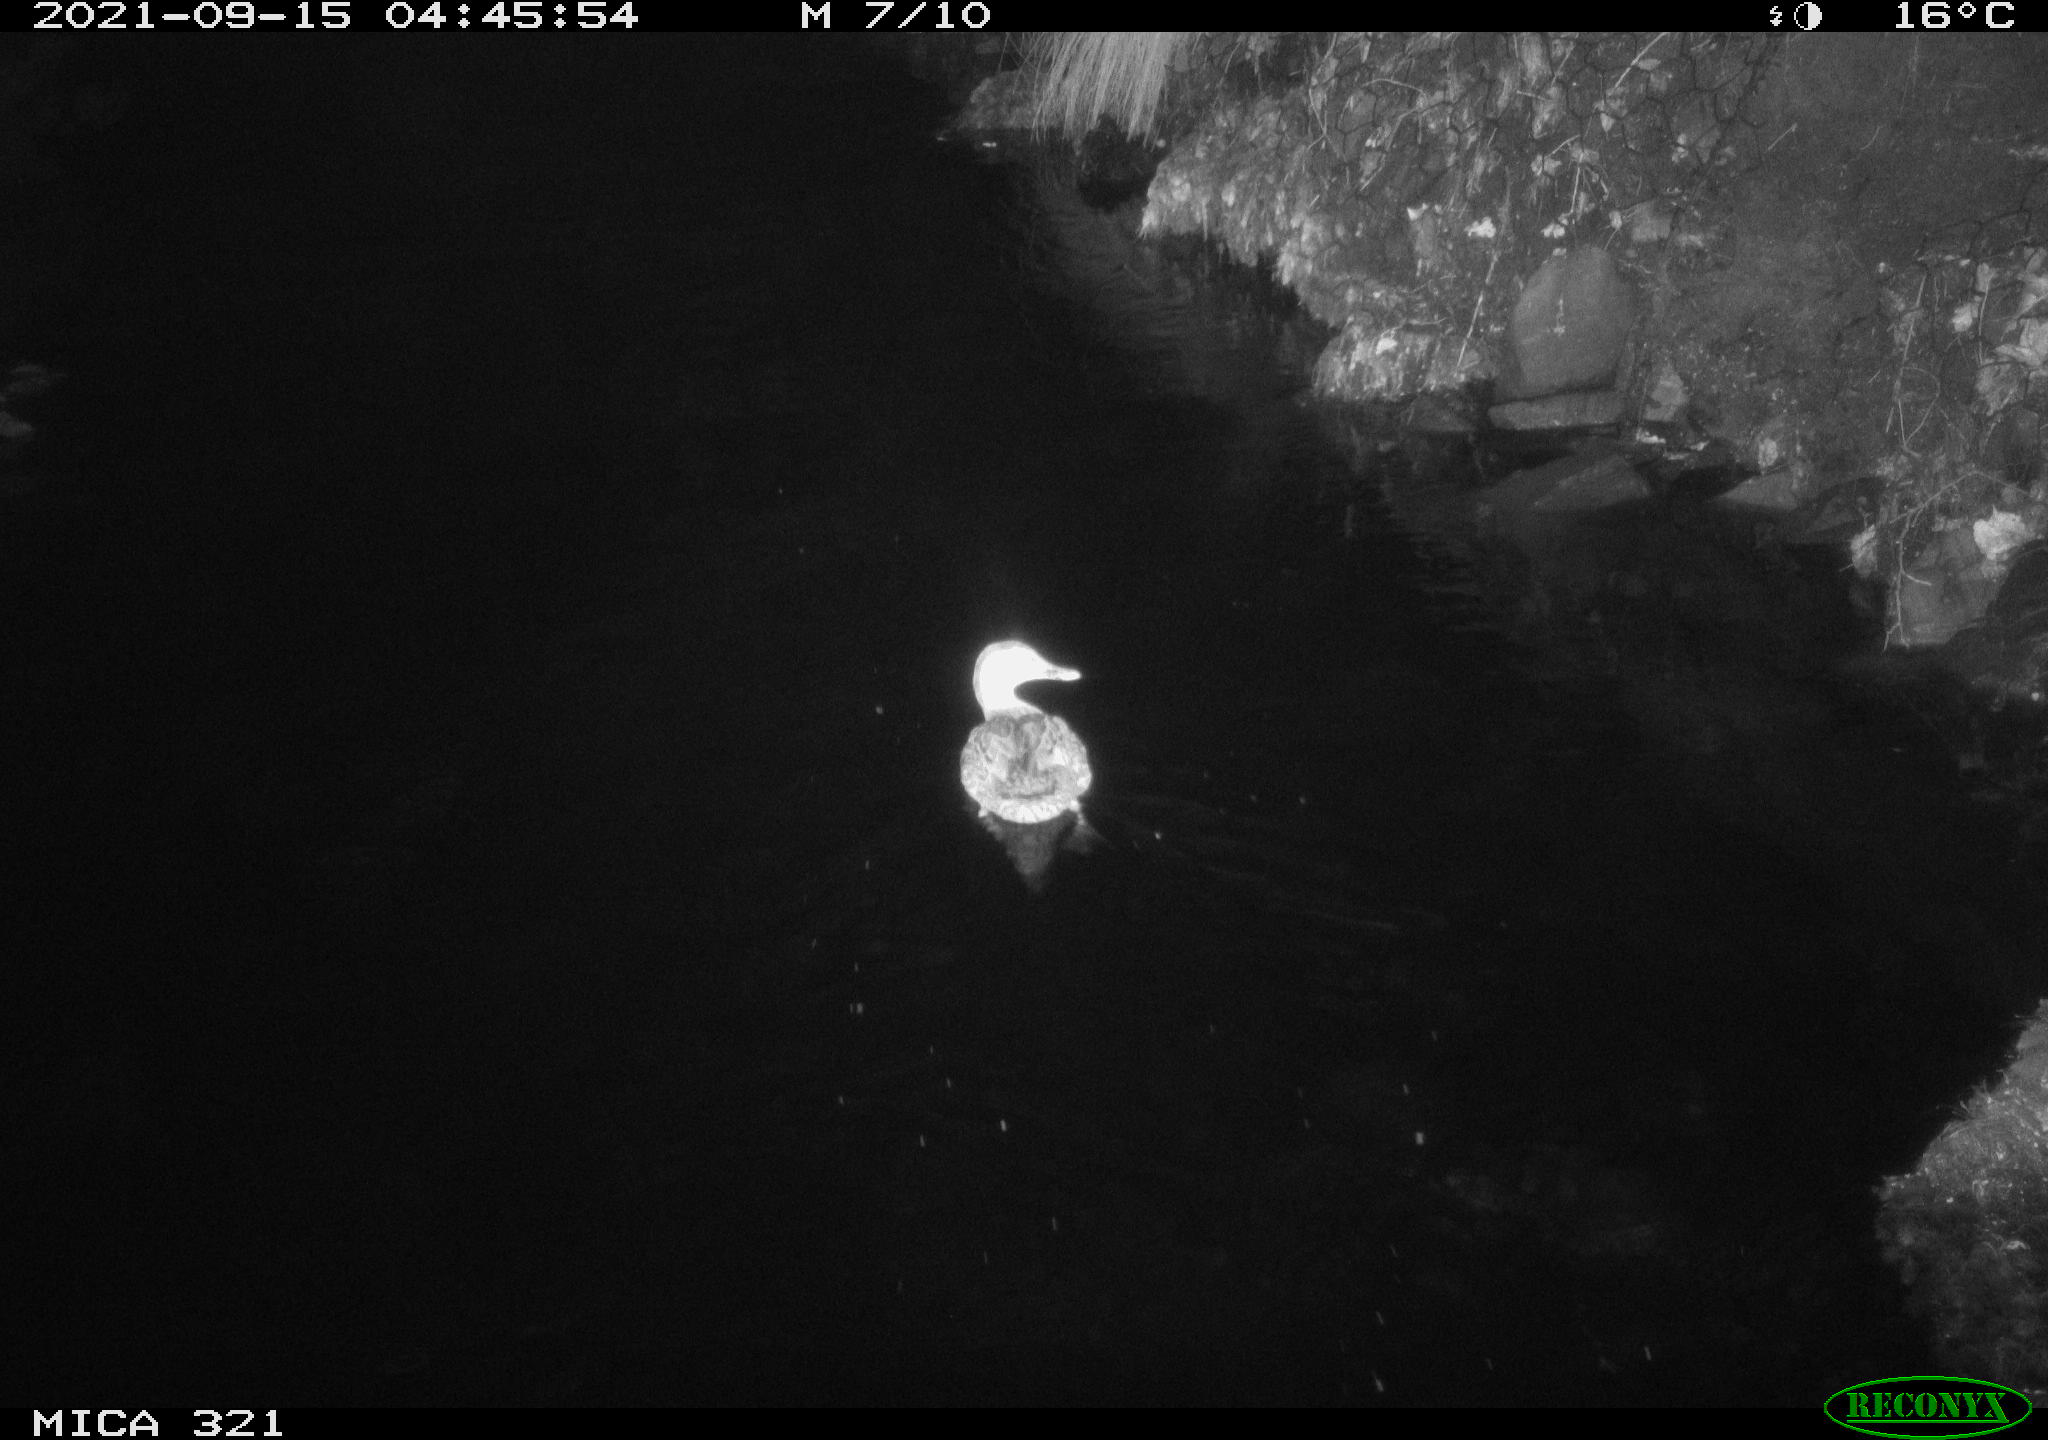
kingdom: Animalia
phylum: Chordata
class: Aves
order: Anseriformes
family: Anatidae
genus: Anas
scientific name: Anas platyrhynchos
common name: Mallard
